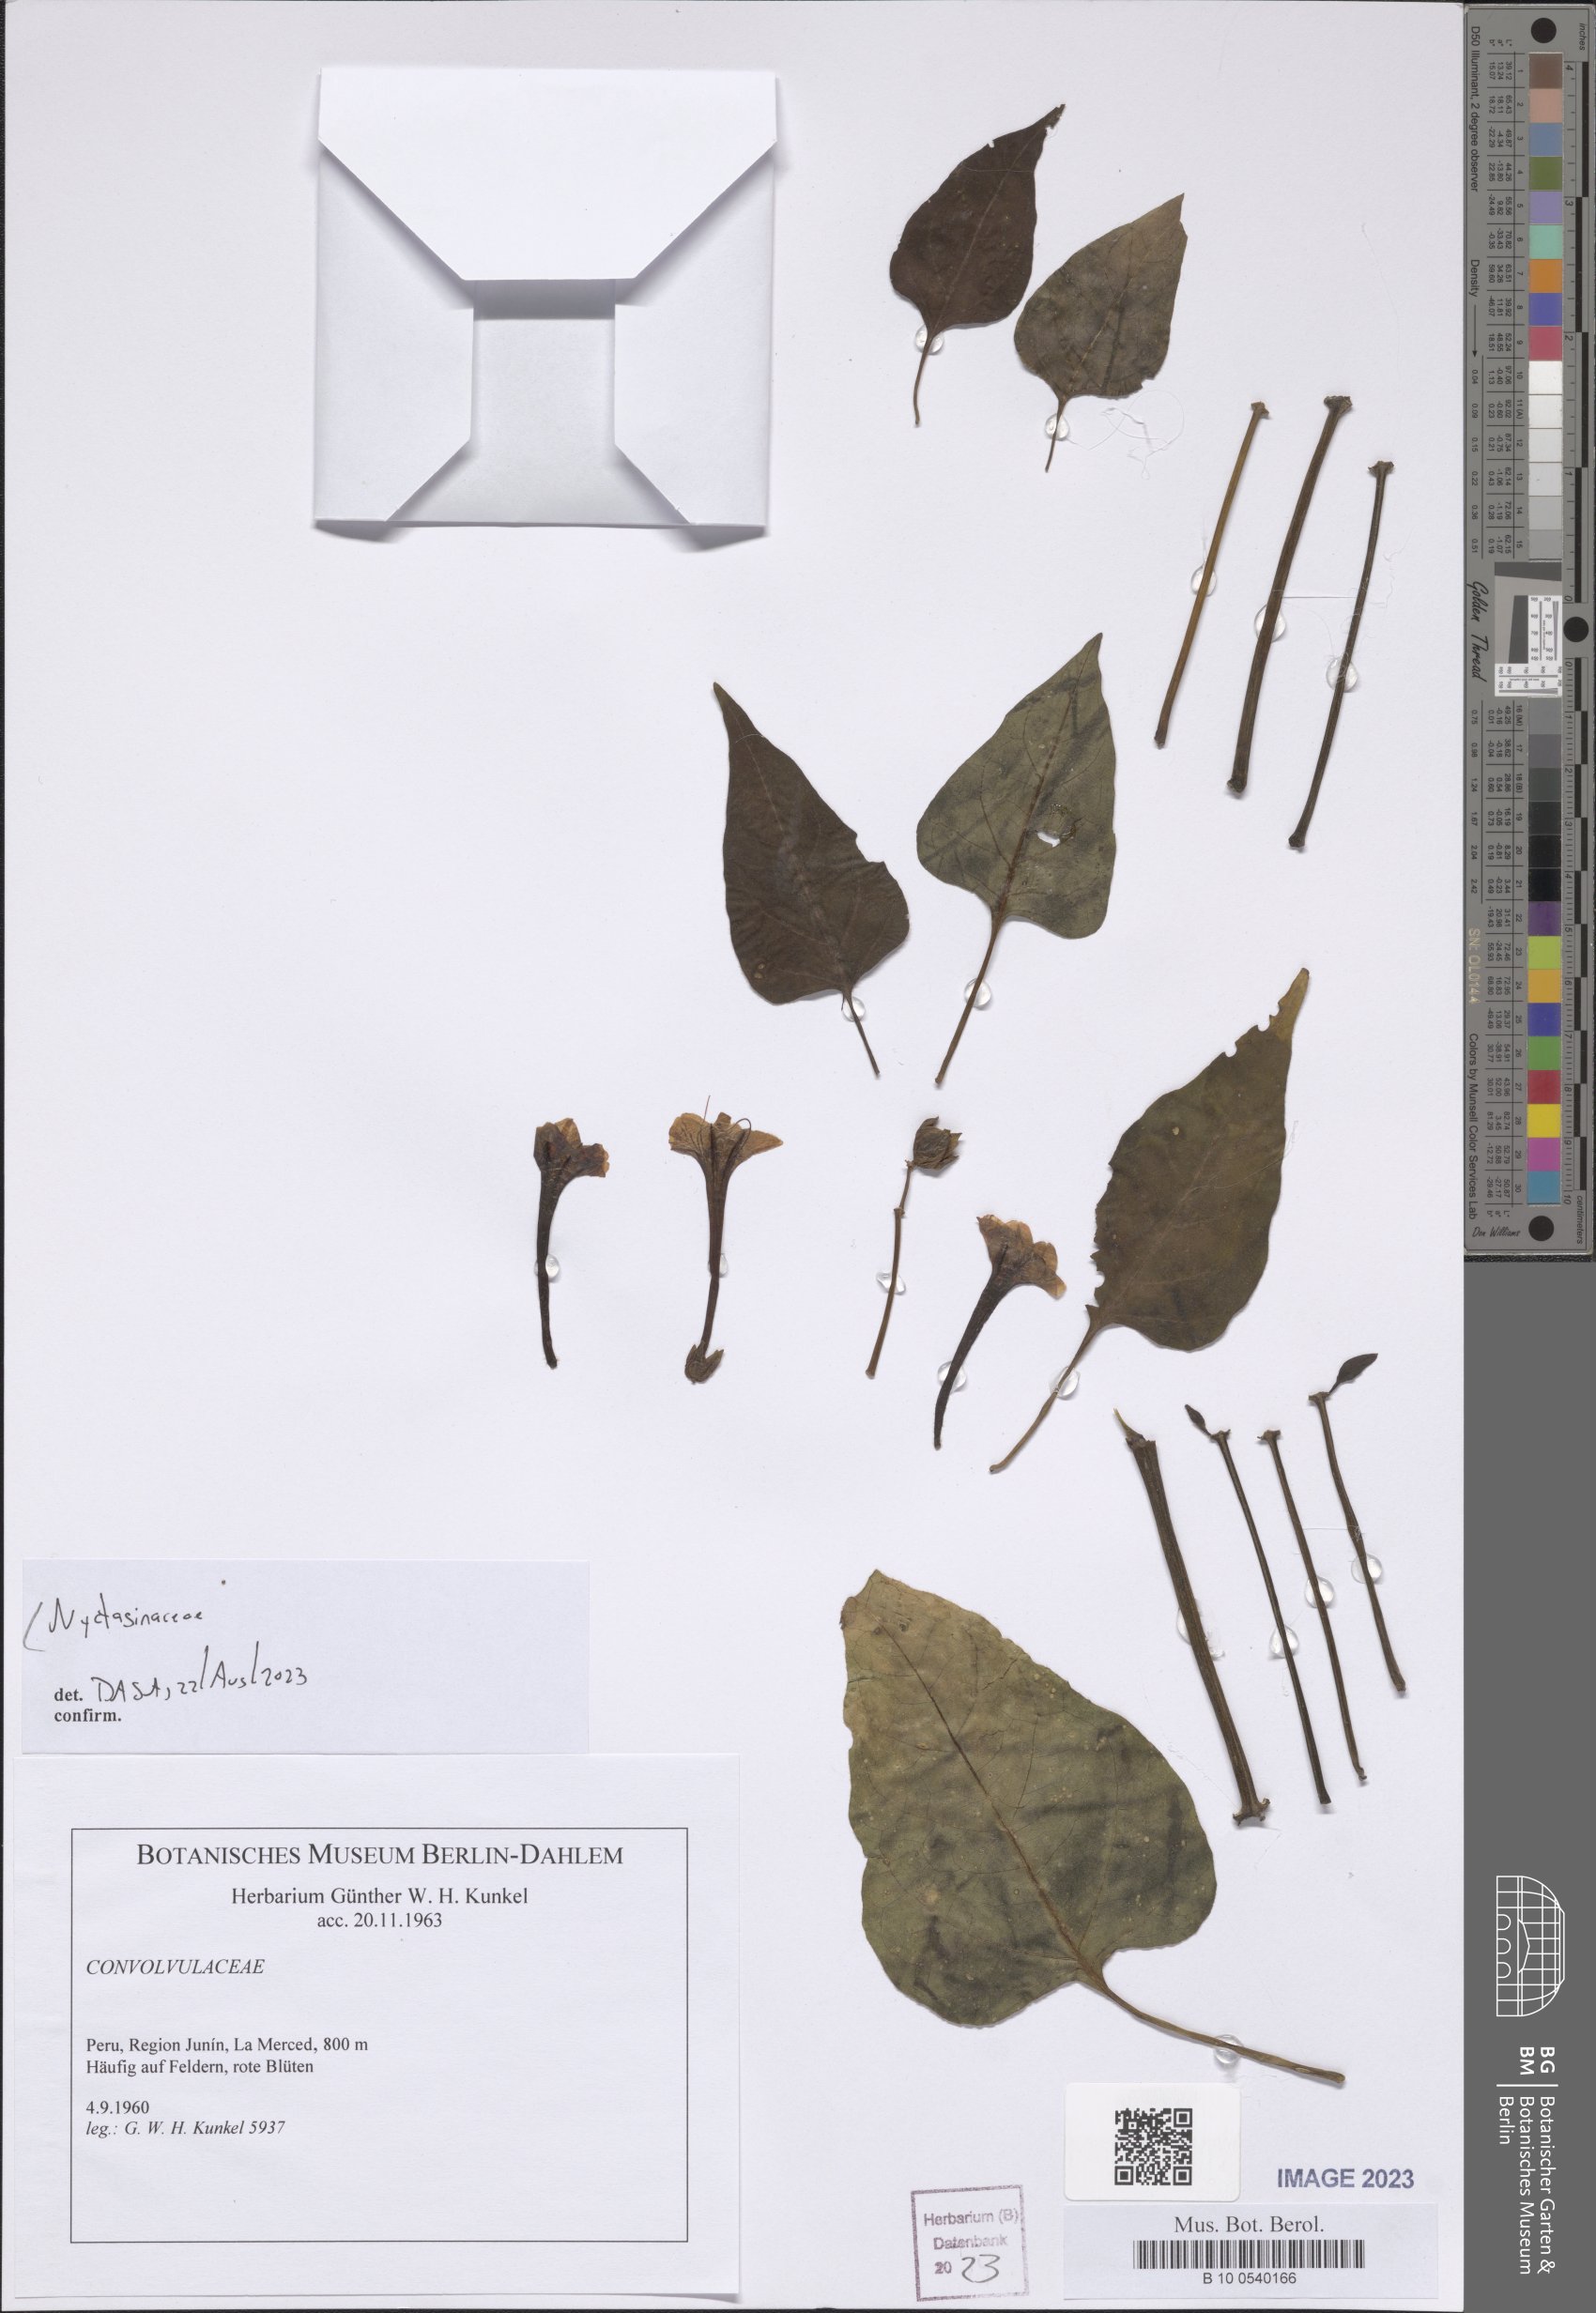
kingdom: Plantae
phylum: Tracheophyta
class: Magnoliopsida
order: Caryophyllales
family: Nyctaginaceae
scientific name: Nyctaginaceae
